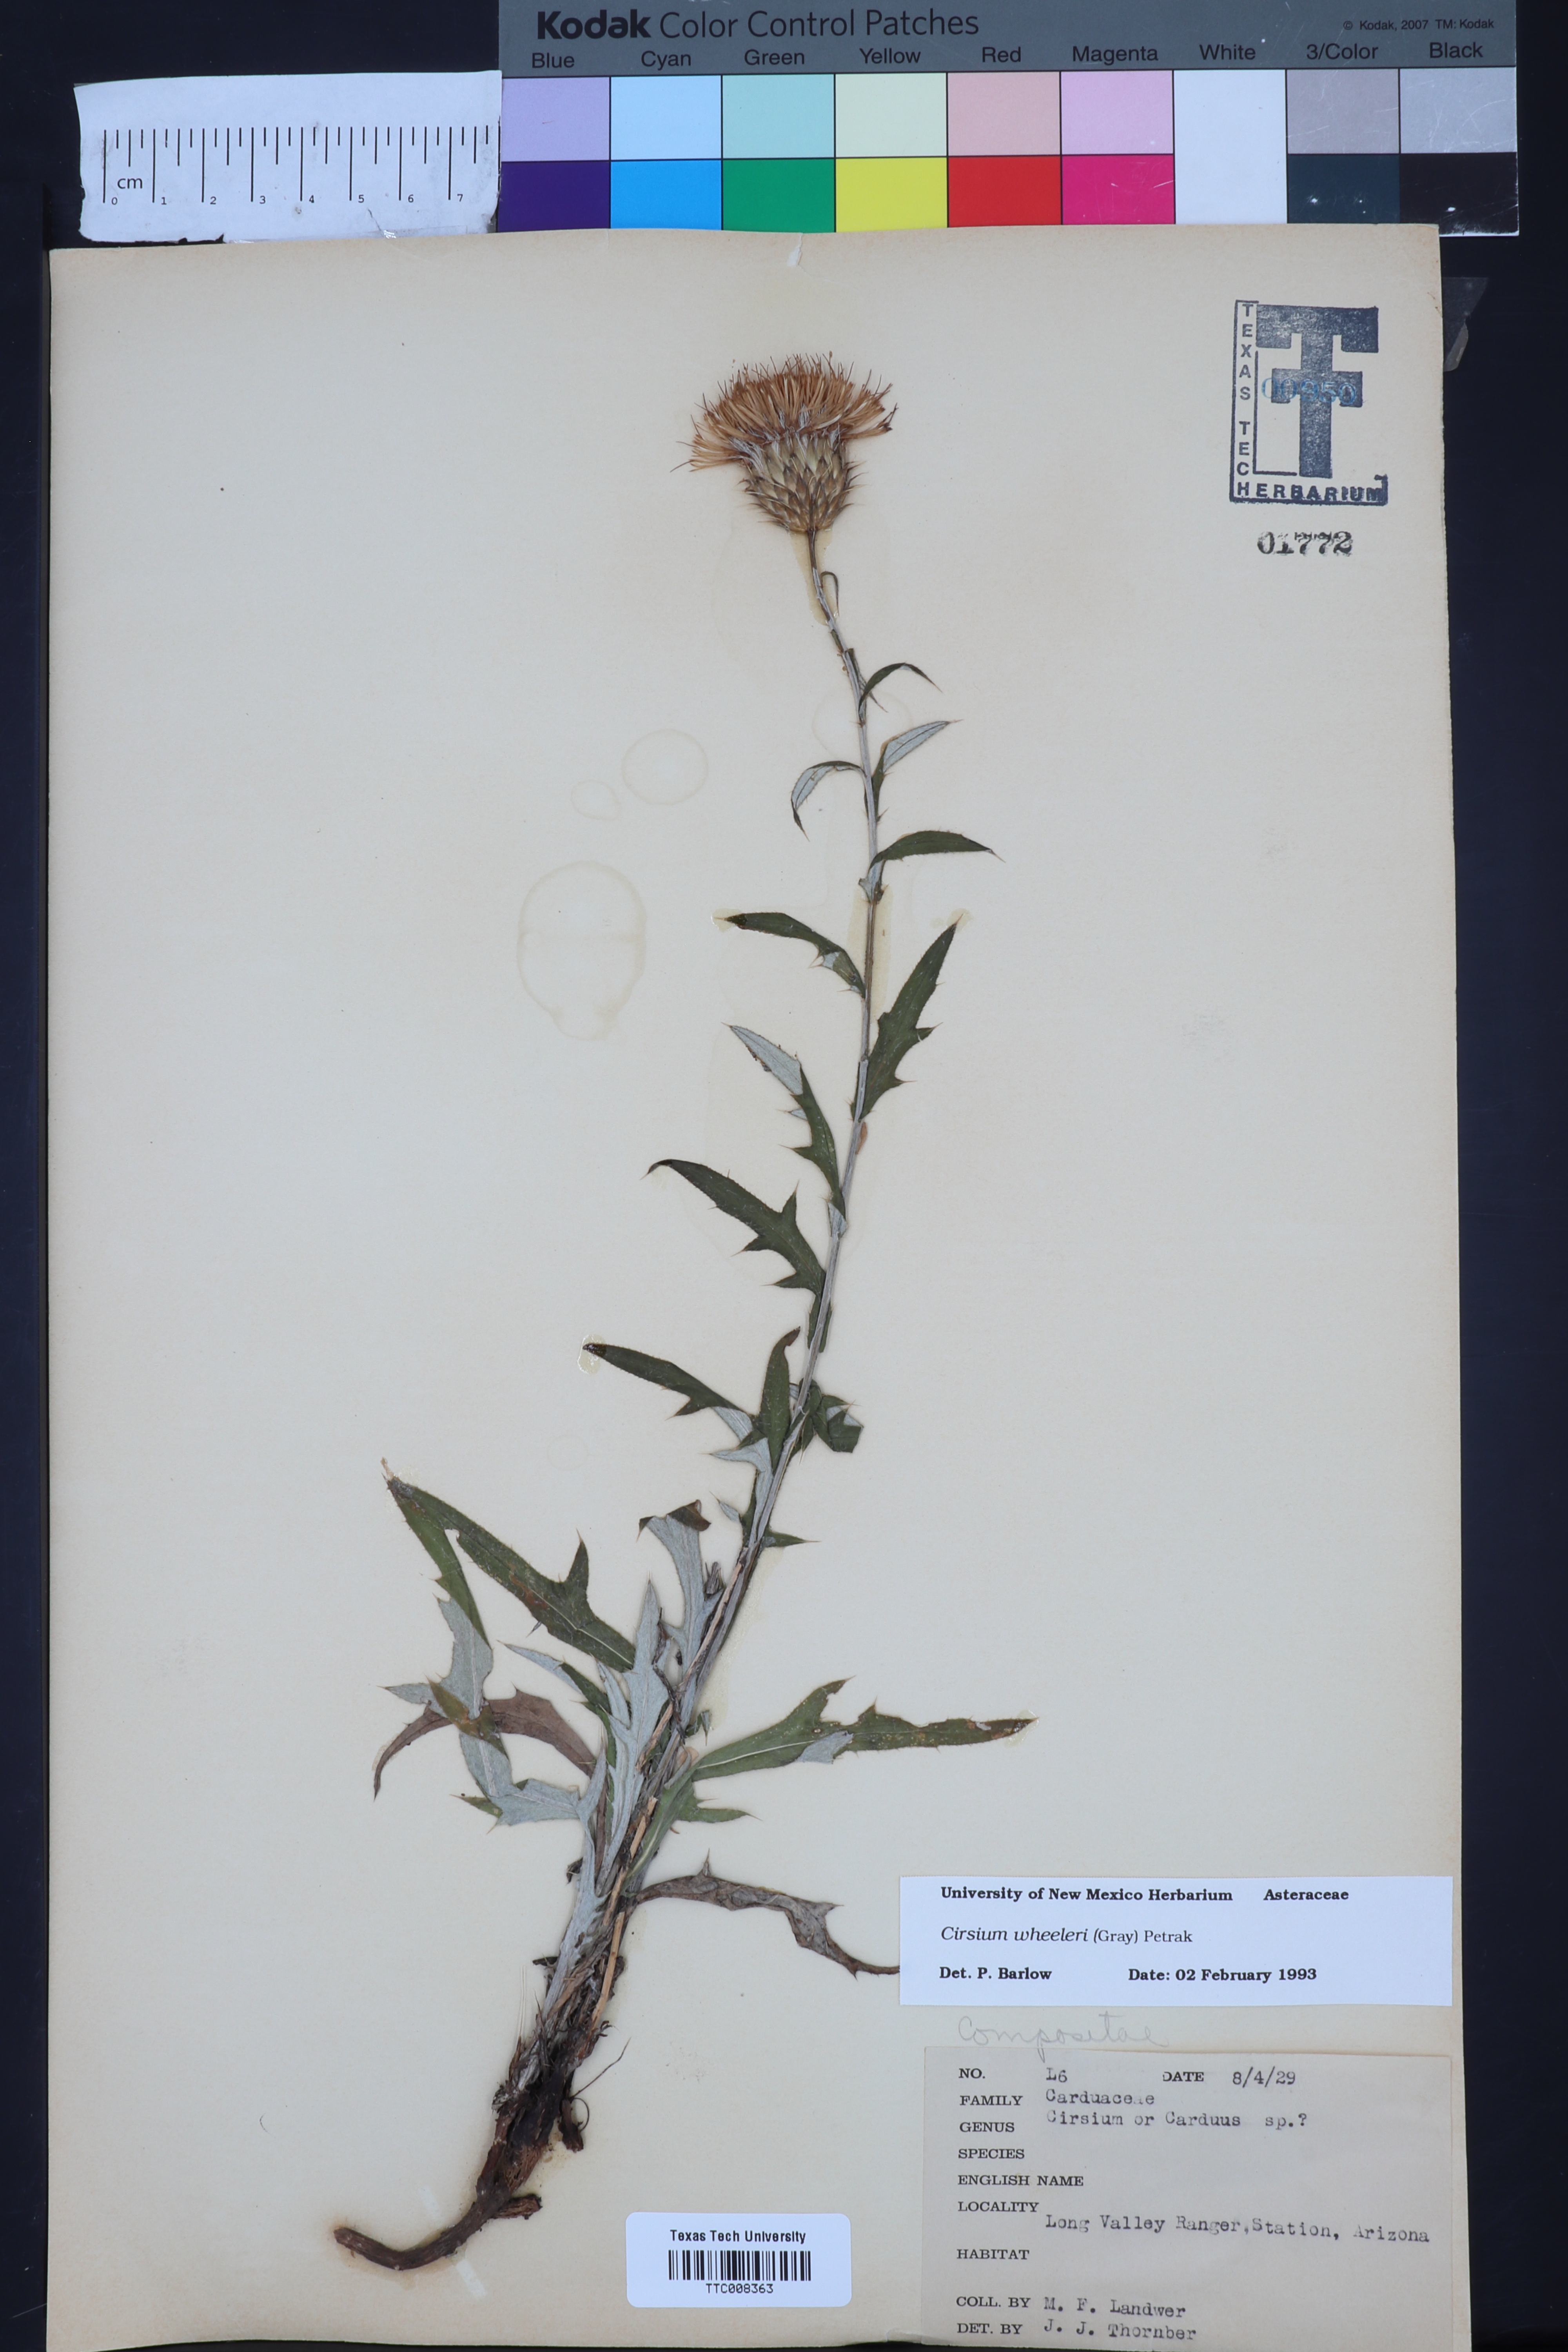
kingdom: Plantae
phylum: Tracheophyta
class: Magnoliopsida
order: Asterales
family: Asteraceae
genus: Cirsium
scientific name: Cirsium wheeleri
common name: Wheeler's thistle
